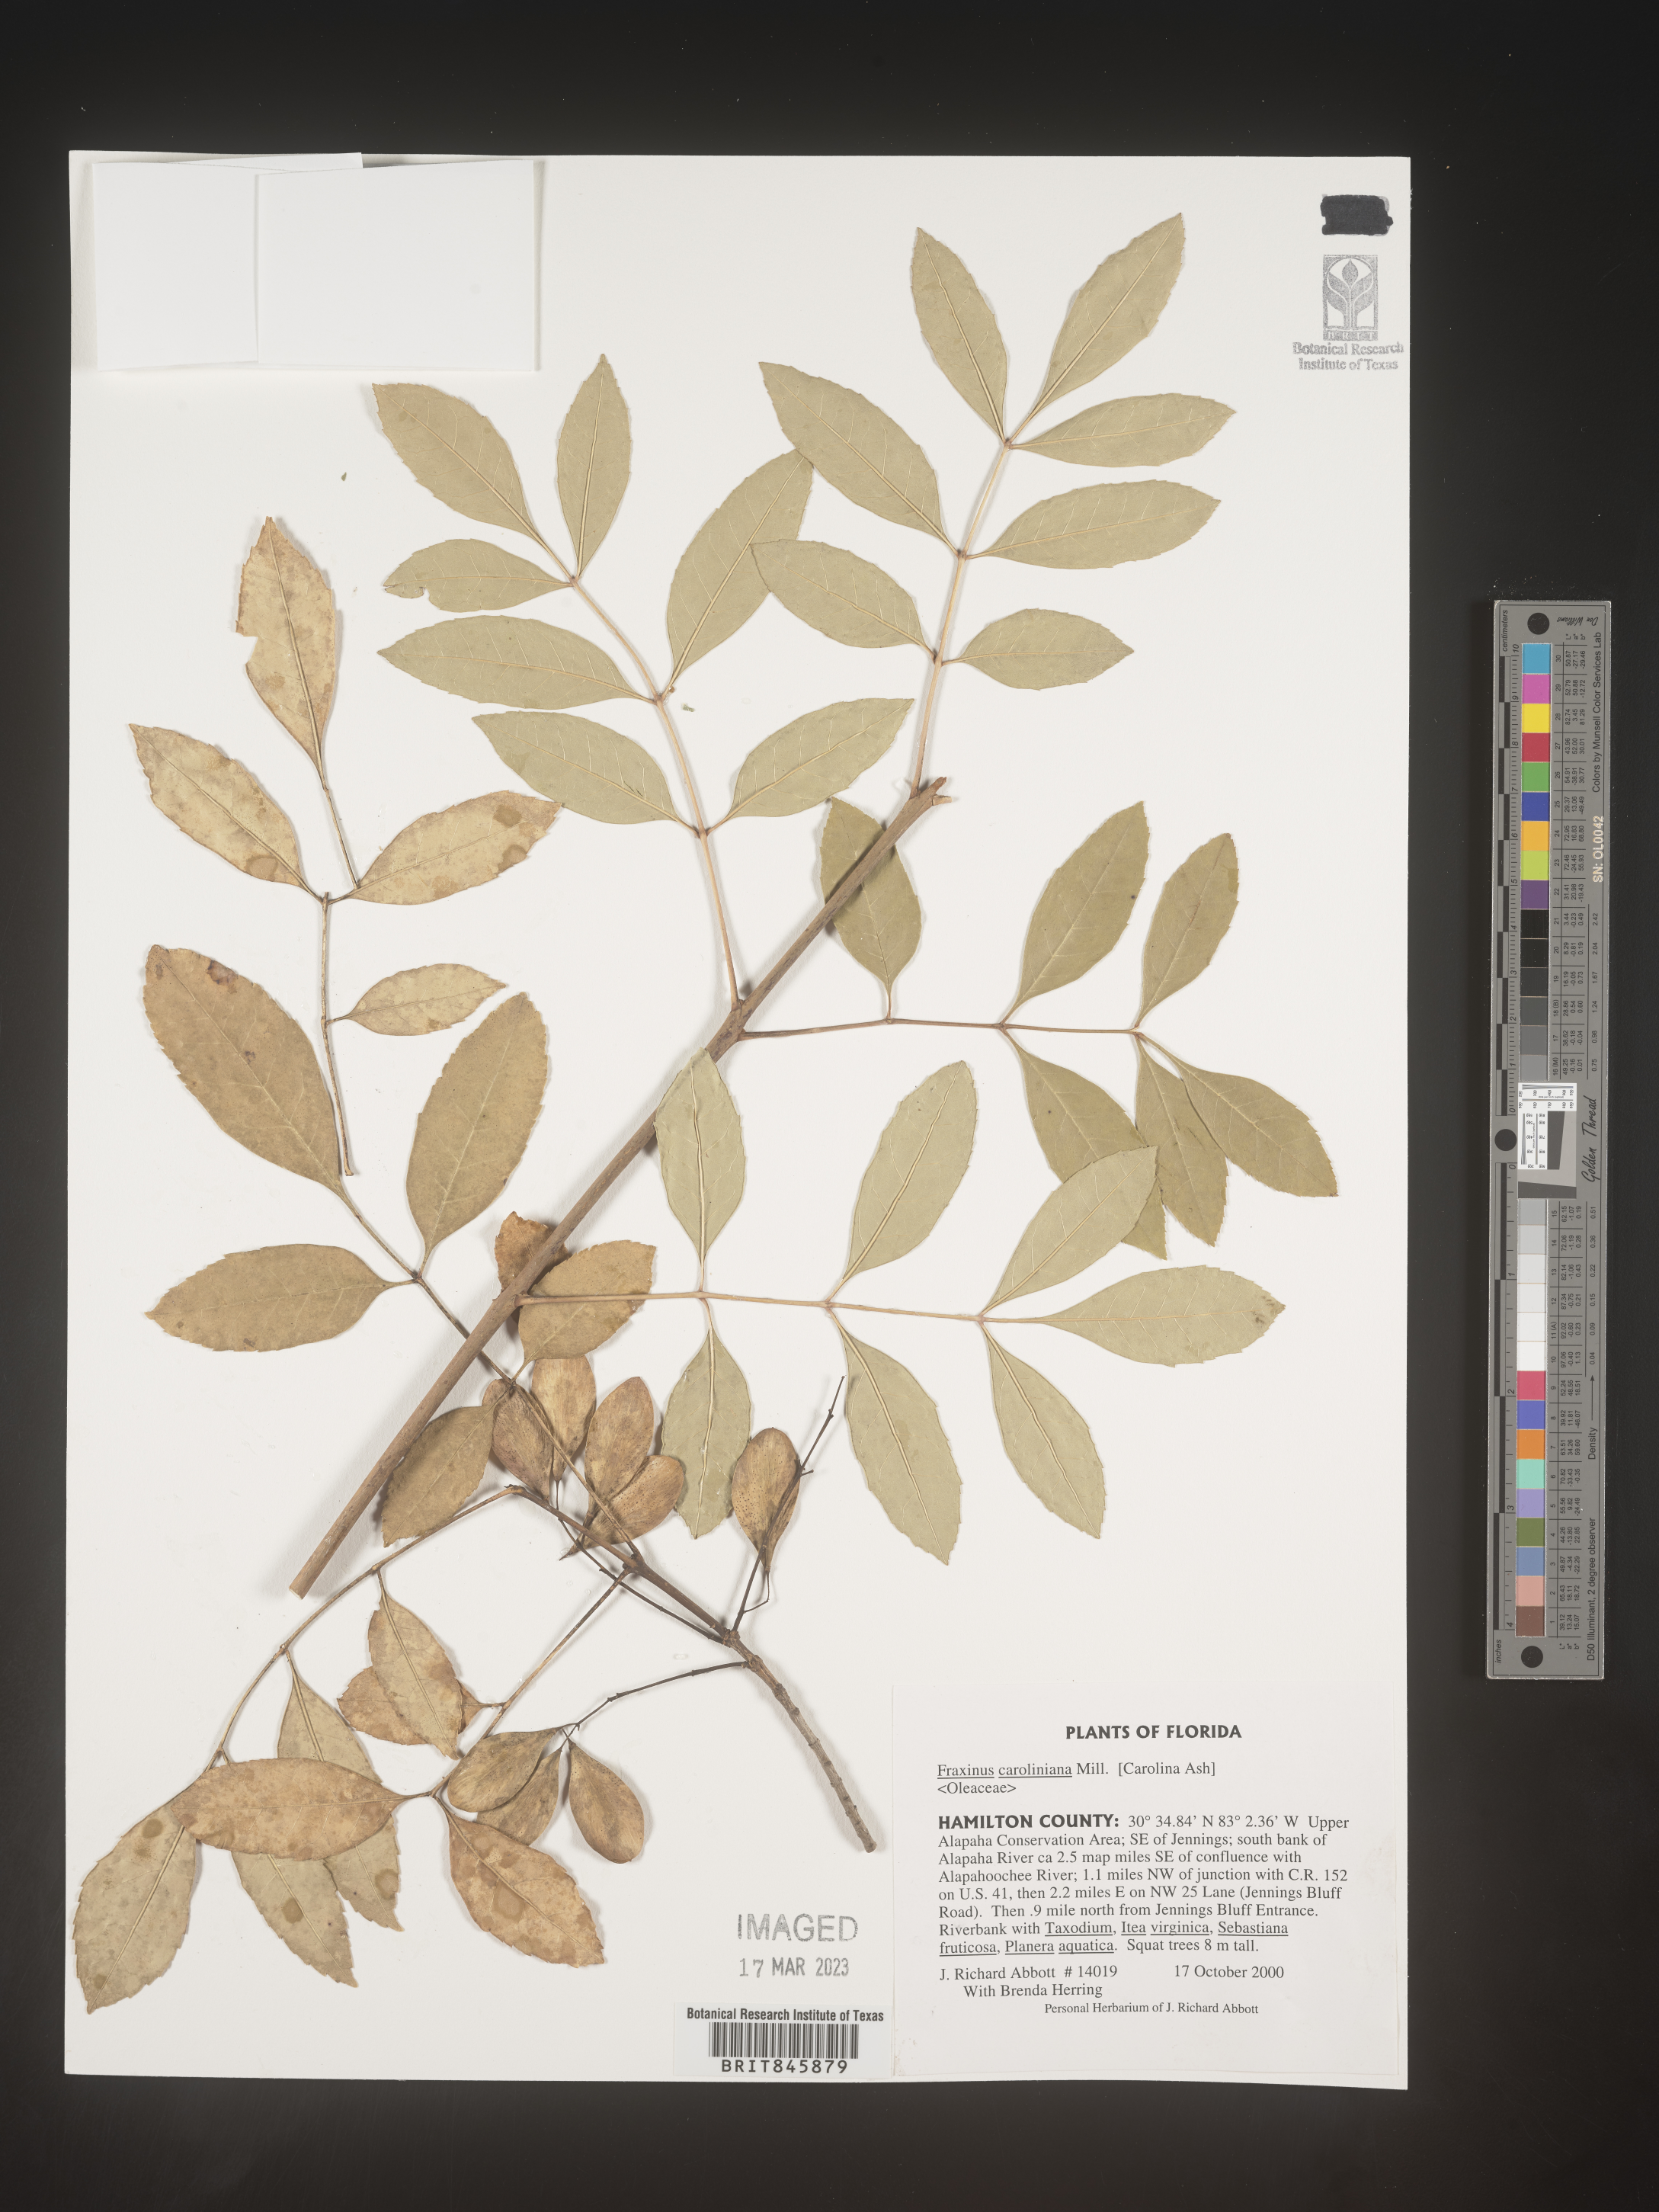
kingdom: Plantae
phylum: Tracheophyta
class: Magnoliopsida
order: Lamiales
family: Oleaceae
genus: Fraxinus
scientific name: Fraxinus caroliniana
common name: Carolina ash
